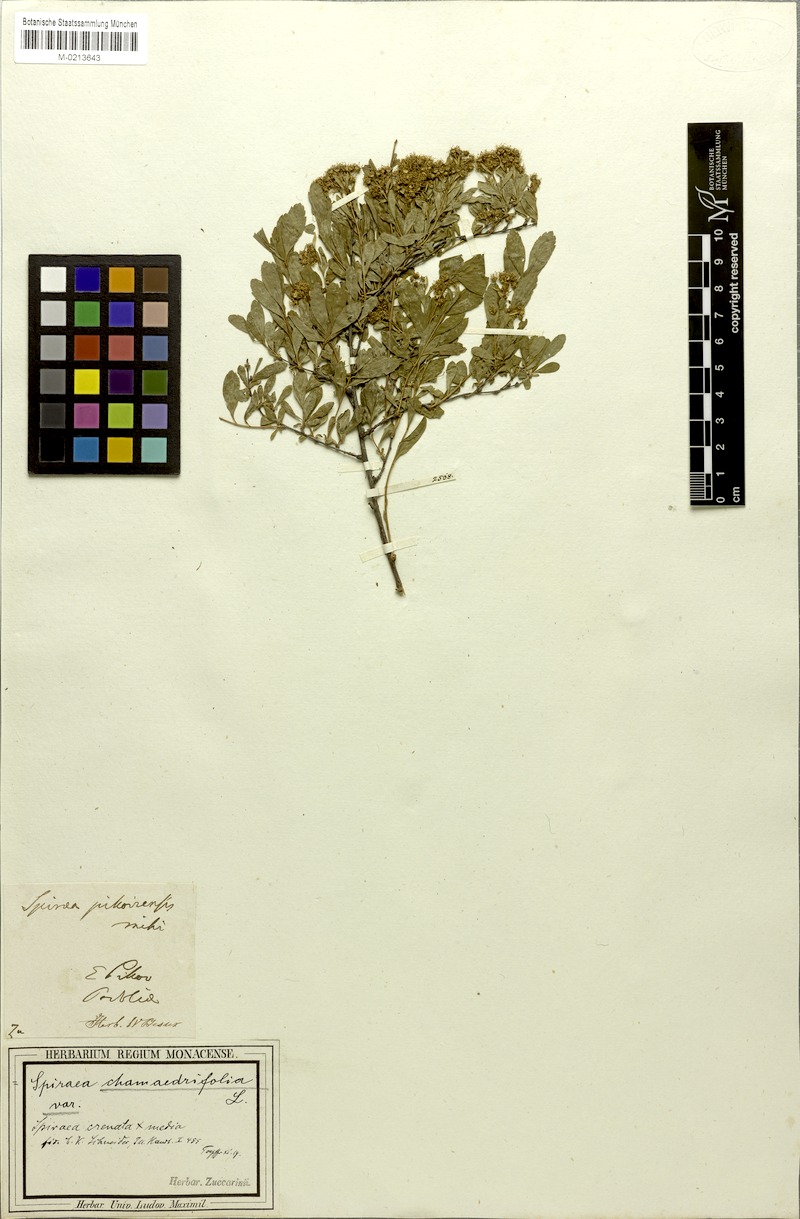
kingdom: Plantae
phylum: Tracheophyta
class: Magnoliopsida
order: Rosales
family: Rosaceae
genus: Spiraea
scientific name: Spiraea chamaedryfolia
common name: Elm-leaved spiraea
